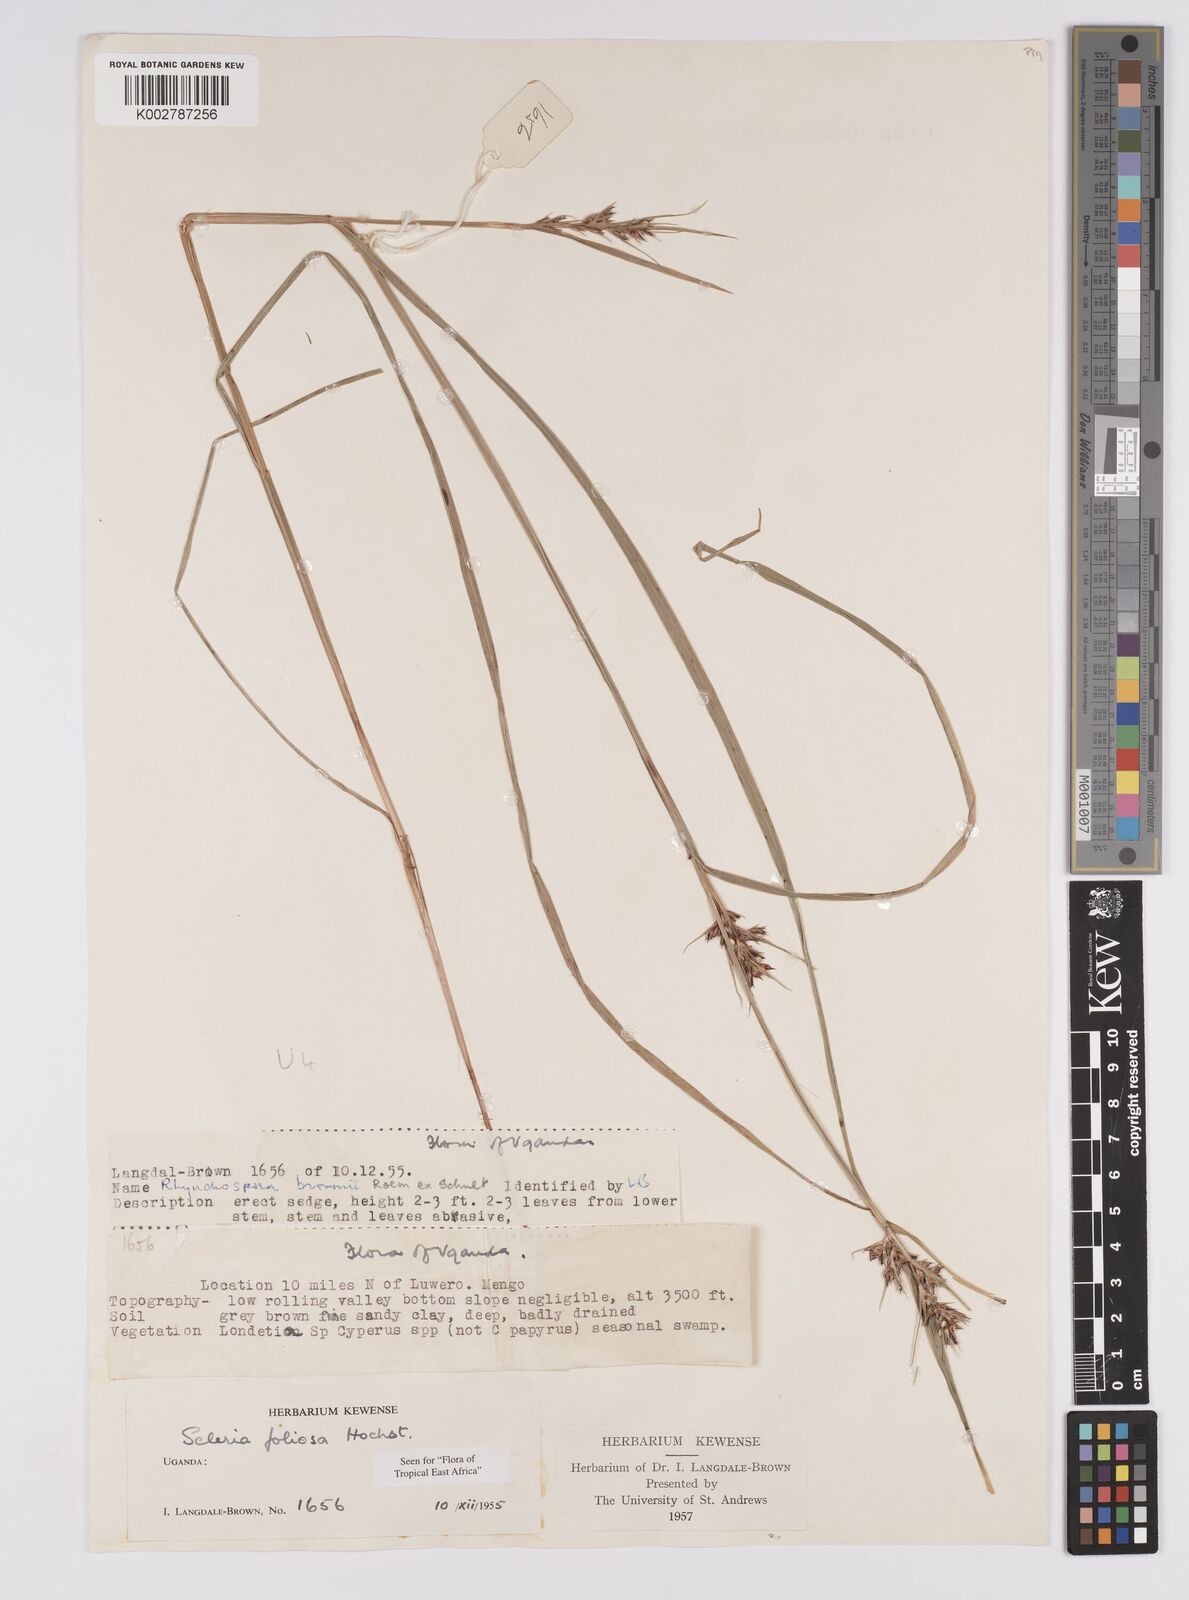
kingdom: Plantae
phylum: Tracheophyta
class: Liliopsida
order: Poales
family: Cyperaceae
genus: Scleria
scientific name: Scleria foliosa
